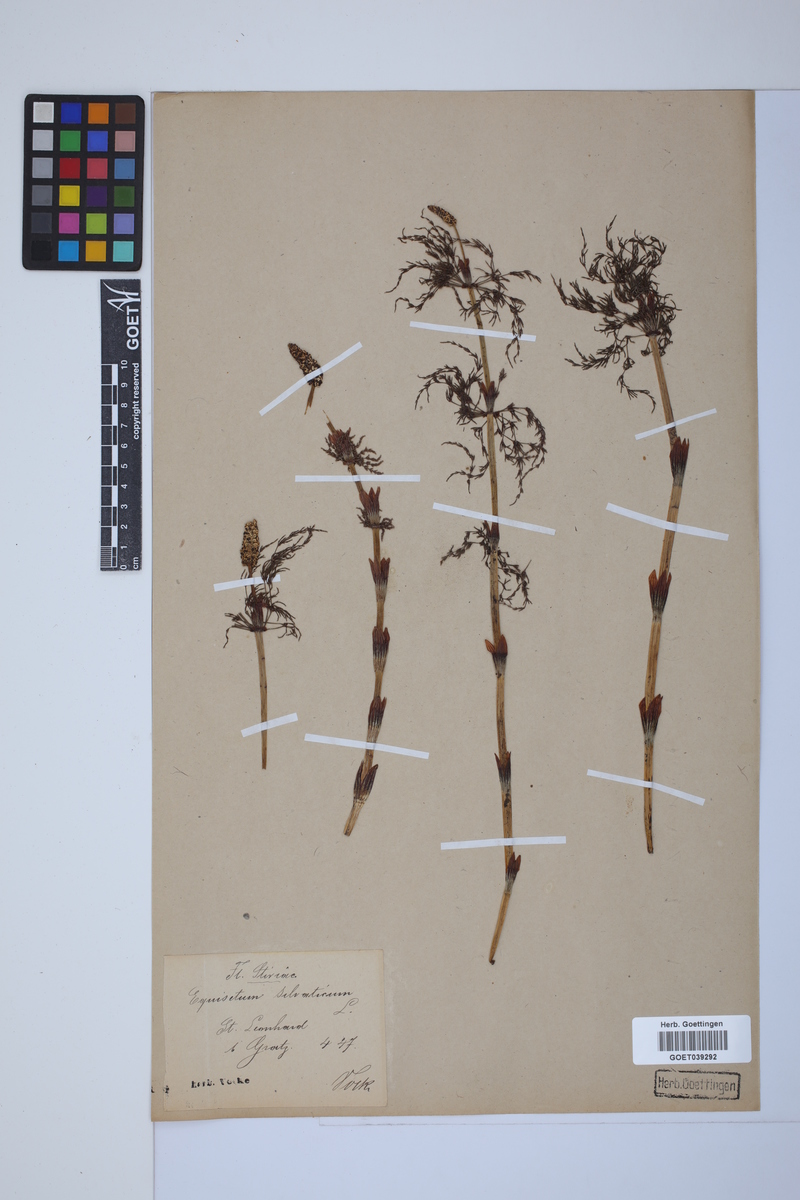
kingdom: Plantae
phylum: Tracheophyta
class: Polypodiopsida
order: Equisetales
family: Equisetaceae
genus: Equisetum
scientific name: Equisetum sylvaticum
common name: Wood horsetail
